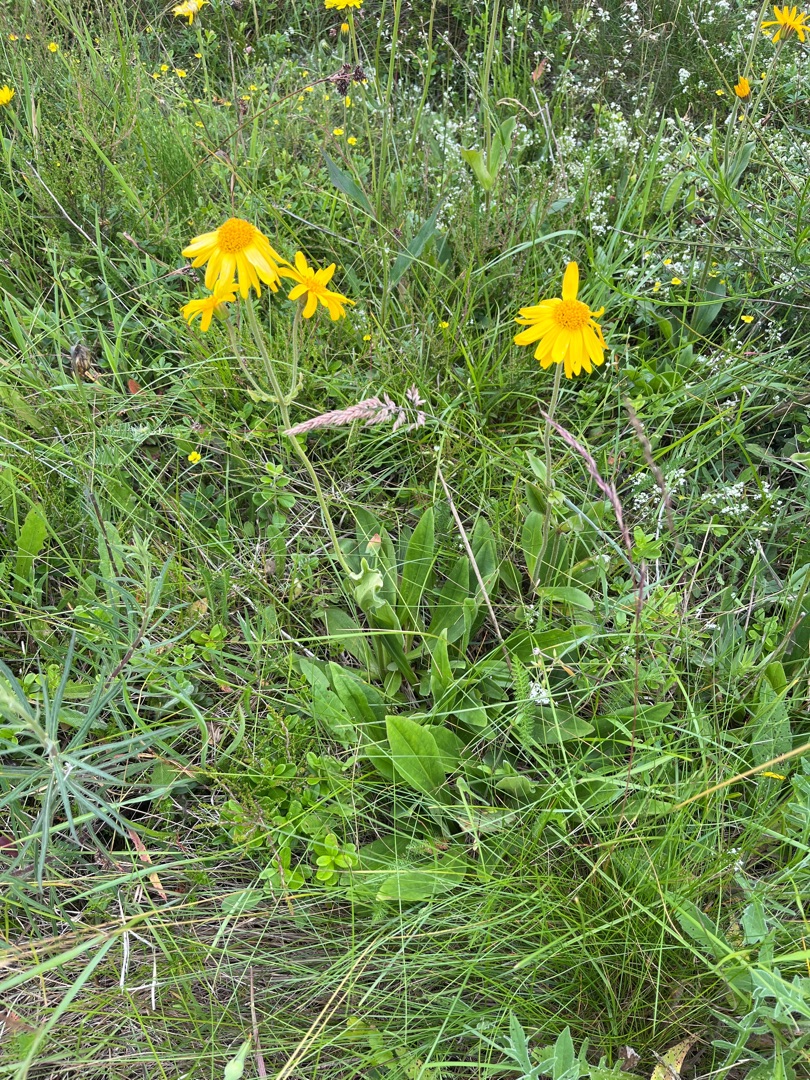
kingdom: Plantae
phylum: Tracheophyta
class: Magnoliopsida
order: Asterales
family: Asteraceae
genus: Arnica
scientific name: Arnica montana
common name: Guldblomme
